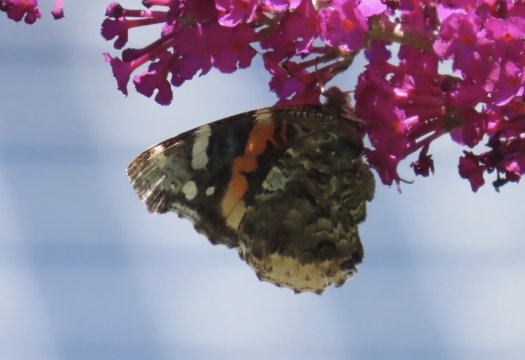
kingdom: Animalia
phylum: Arthropoda
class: Insecta
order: Lepidoptera
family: Nymphalidae
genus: Vanessa
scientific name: Vanessa atalanta
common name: Red Admiral
